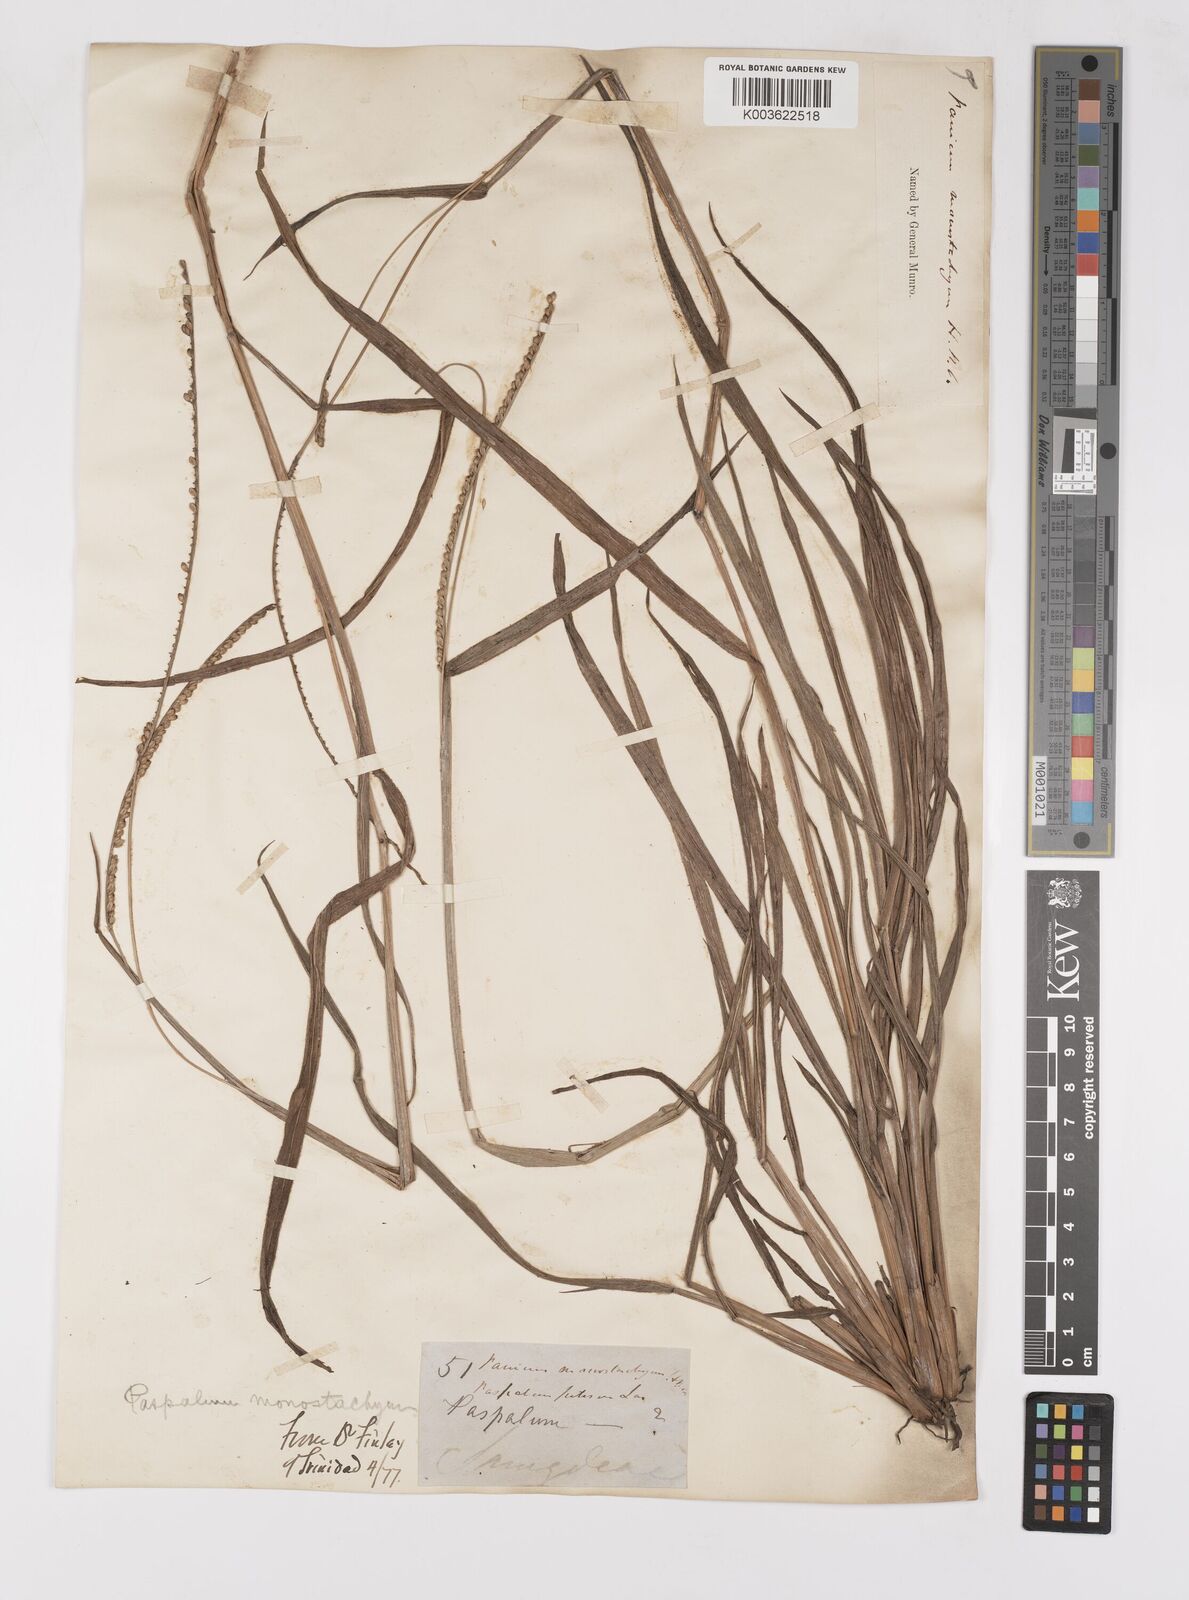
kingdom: Plantae
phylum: Tracheophyta
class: Liliopsida
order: Poales
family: Poaceae
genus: Paspalum
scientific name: Paspalum pilosum
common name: Crowngrass
